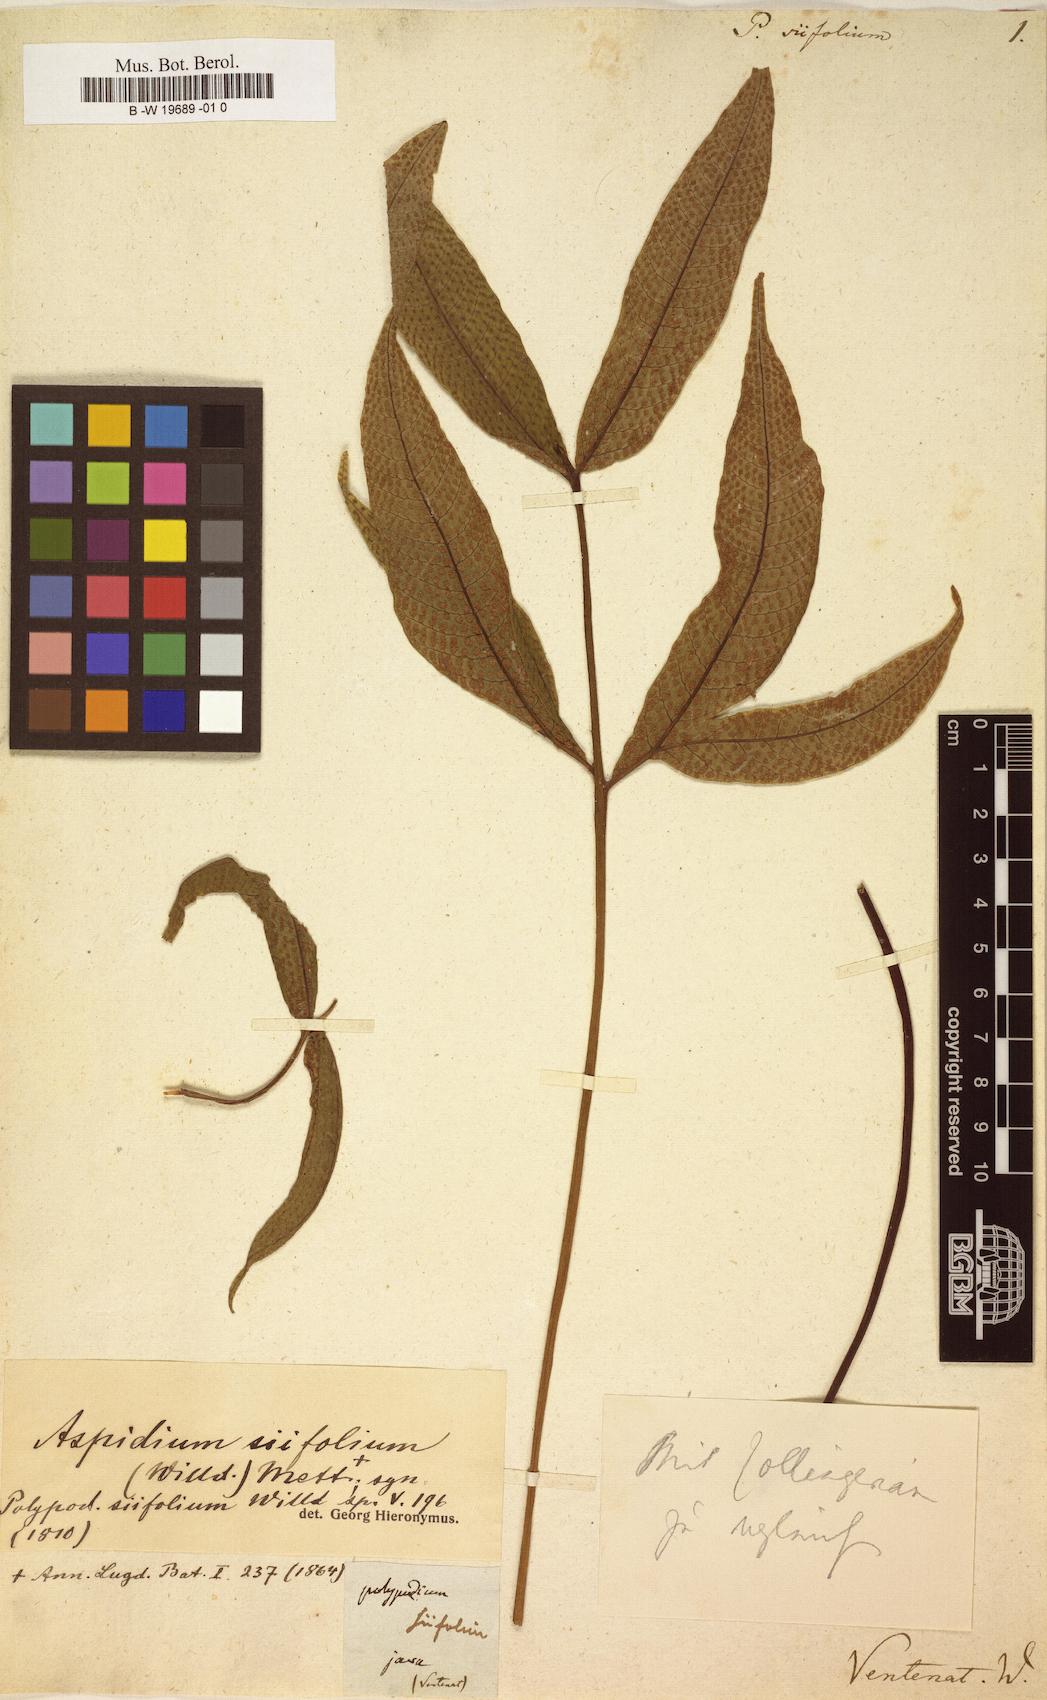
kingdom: Plantae
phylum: Tracheophyta
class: Polypodiopsida
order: Polypodiales
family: Tectariaceae
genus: Tectaria
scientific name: Tectaria siifolia
